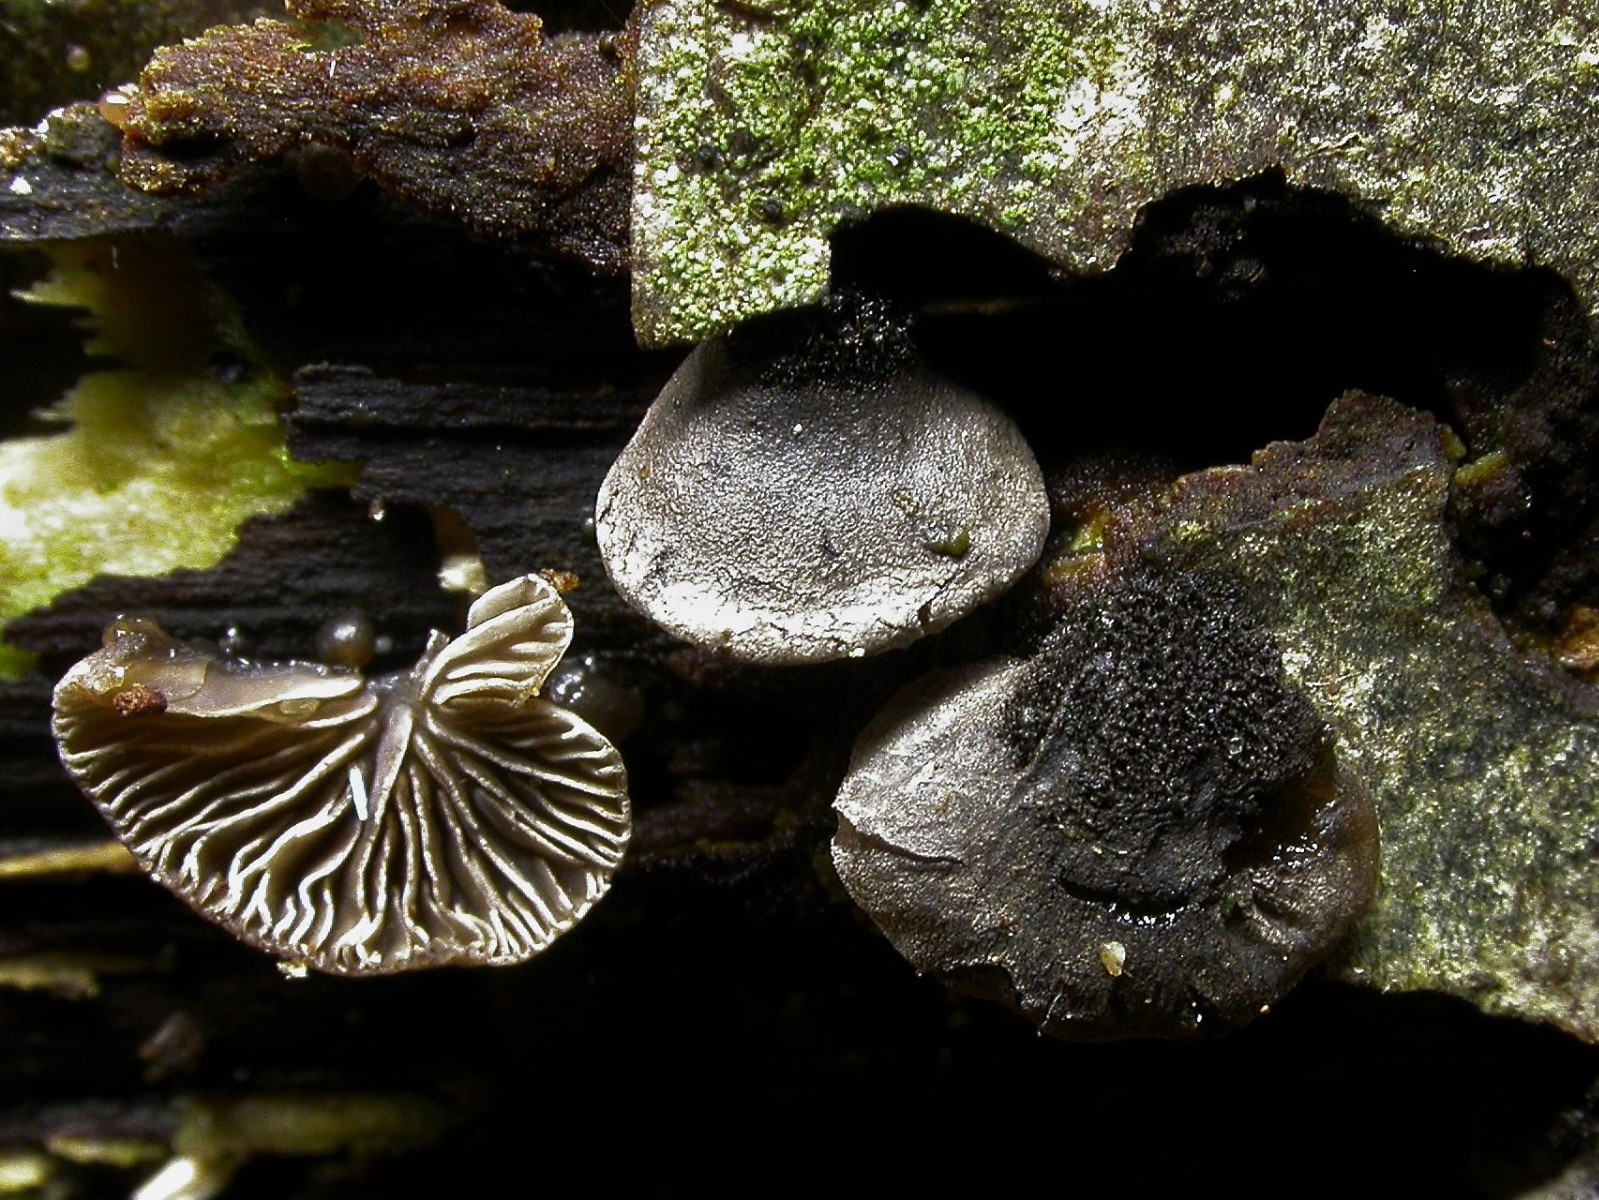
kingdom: Fungi
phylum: Basidiomycota
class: Agaricomycetes
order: Agaricales
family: Pleurotaceae
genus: Resupinatus
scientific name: Resupinatus trichotis
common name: mørkfiltet barkhat
